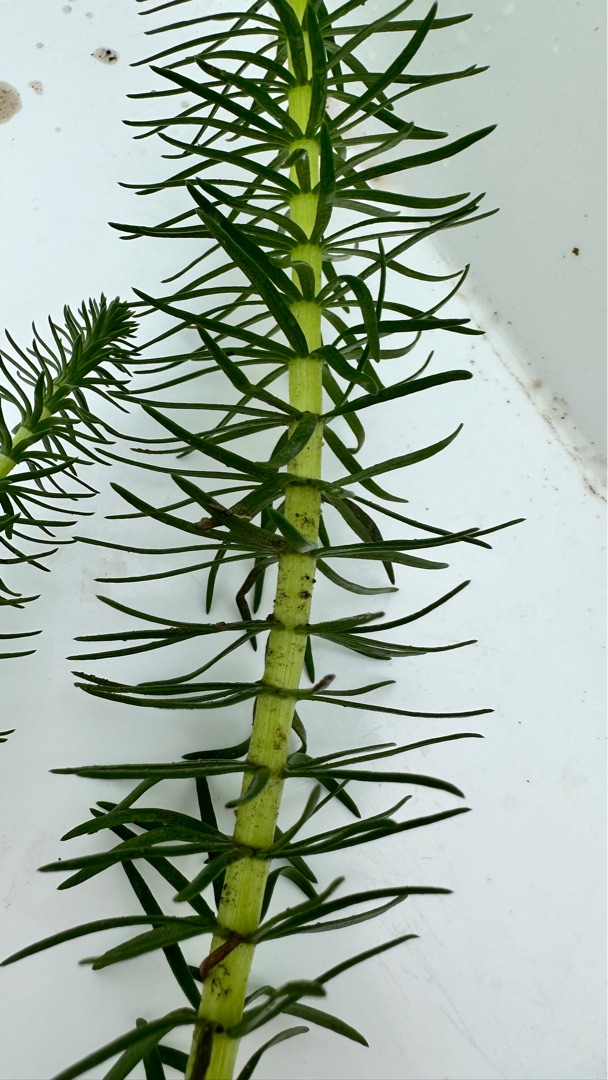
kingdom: Plantae
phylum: Tracheophyta
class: Magnoliopsida
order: Lamiales
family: Plantaginaceae
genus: Hippuris
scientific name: Hippuris vulgaris
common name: Vandspir
